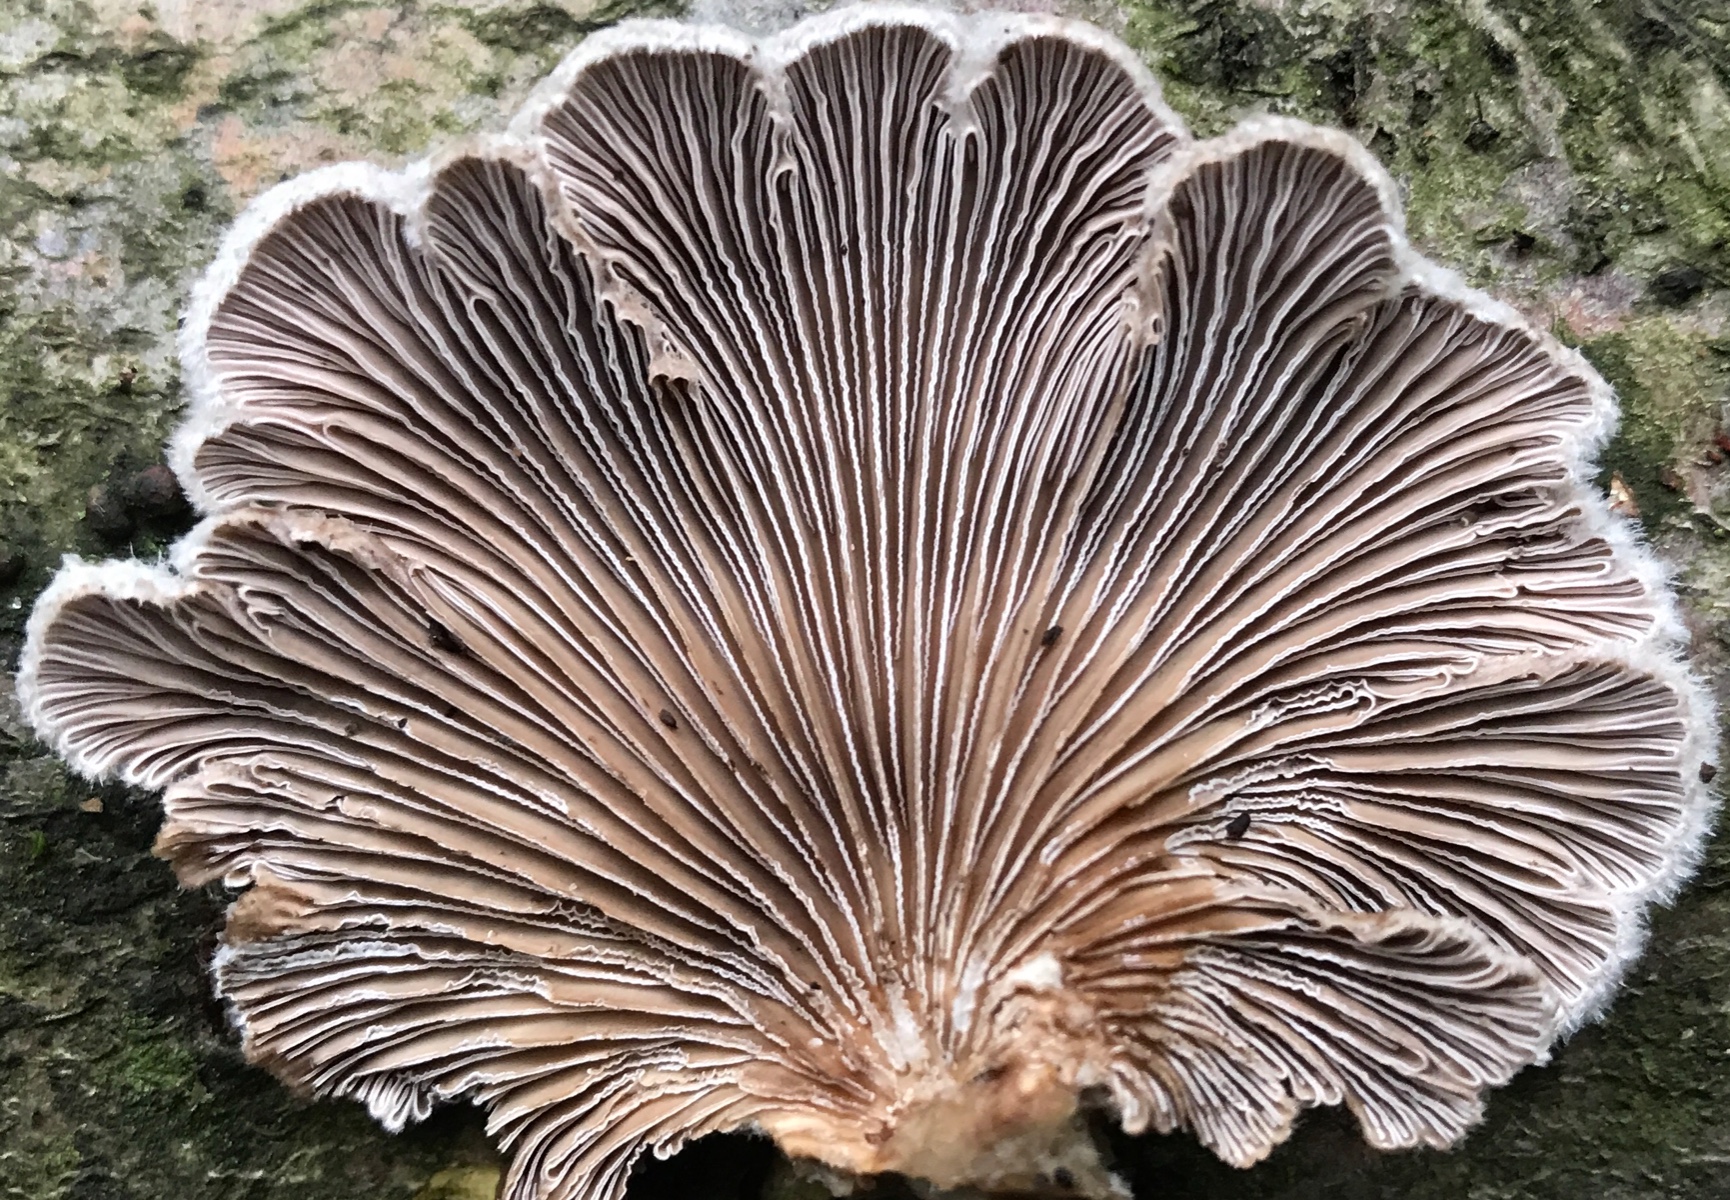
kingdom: Fungi
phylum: Basidiomycota
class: Agaricomycetes
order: Agaricales
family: Schizophyllaceae
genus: Schizophyllum
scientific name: Schizophyllum commune
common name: kløvblad
